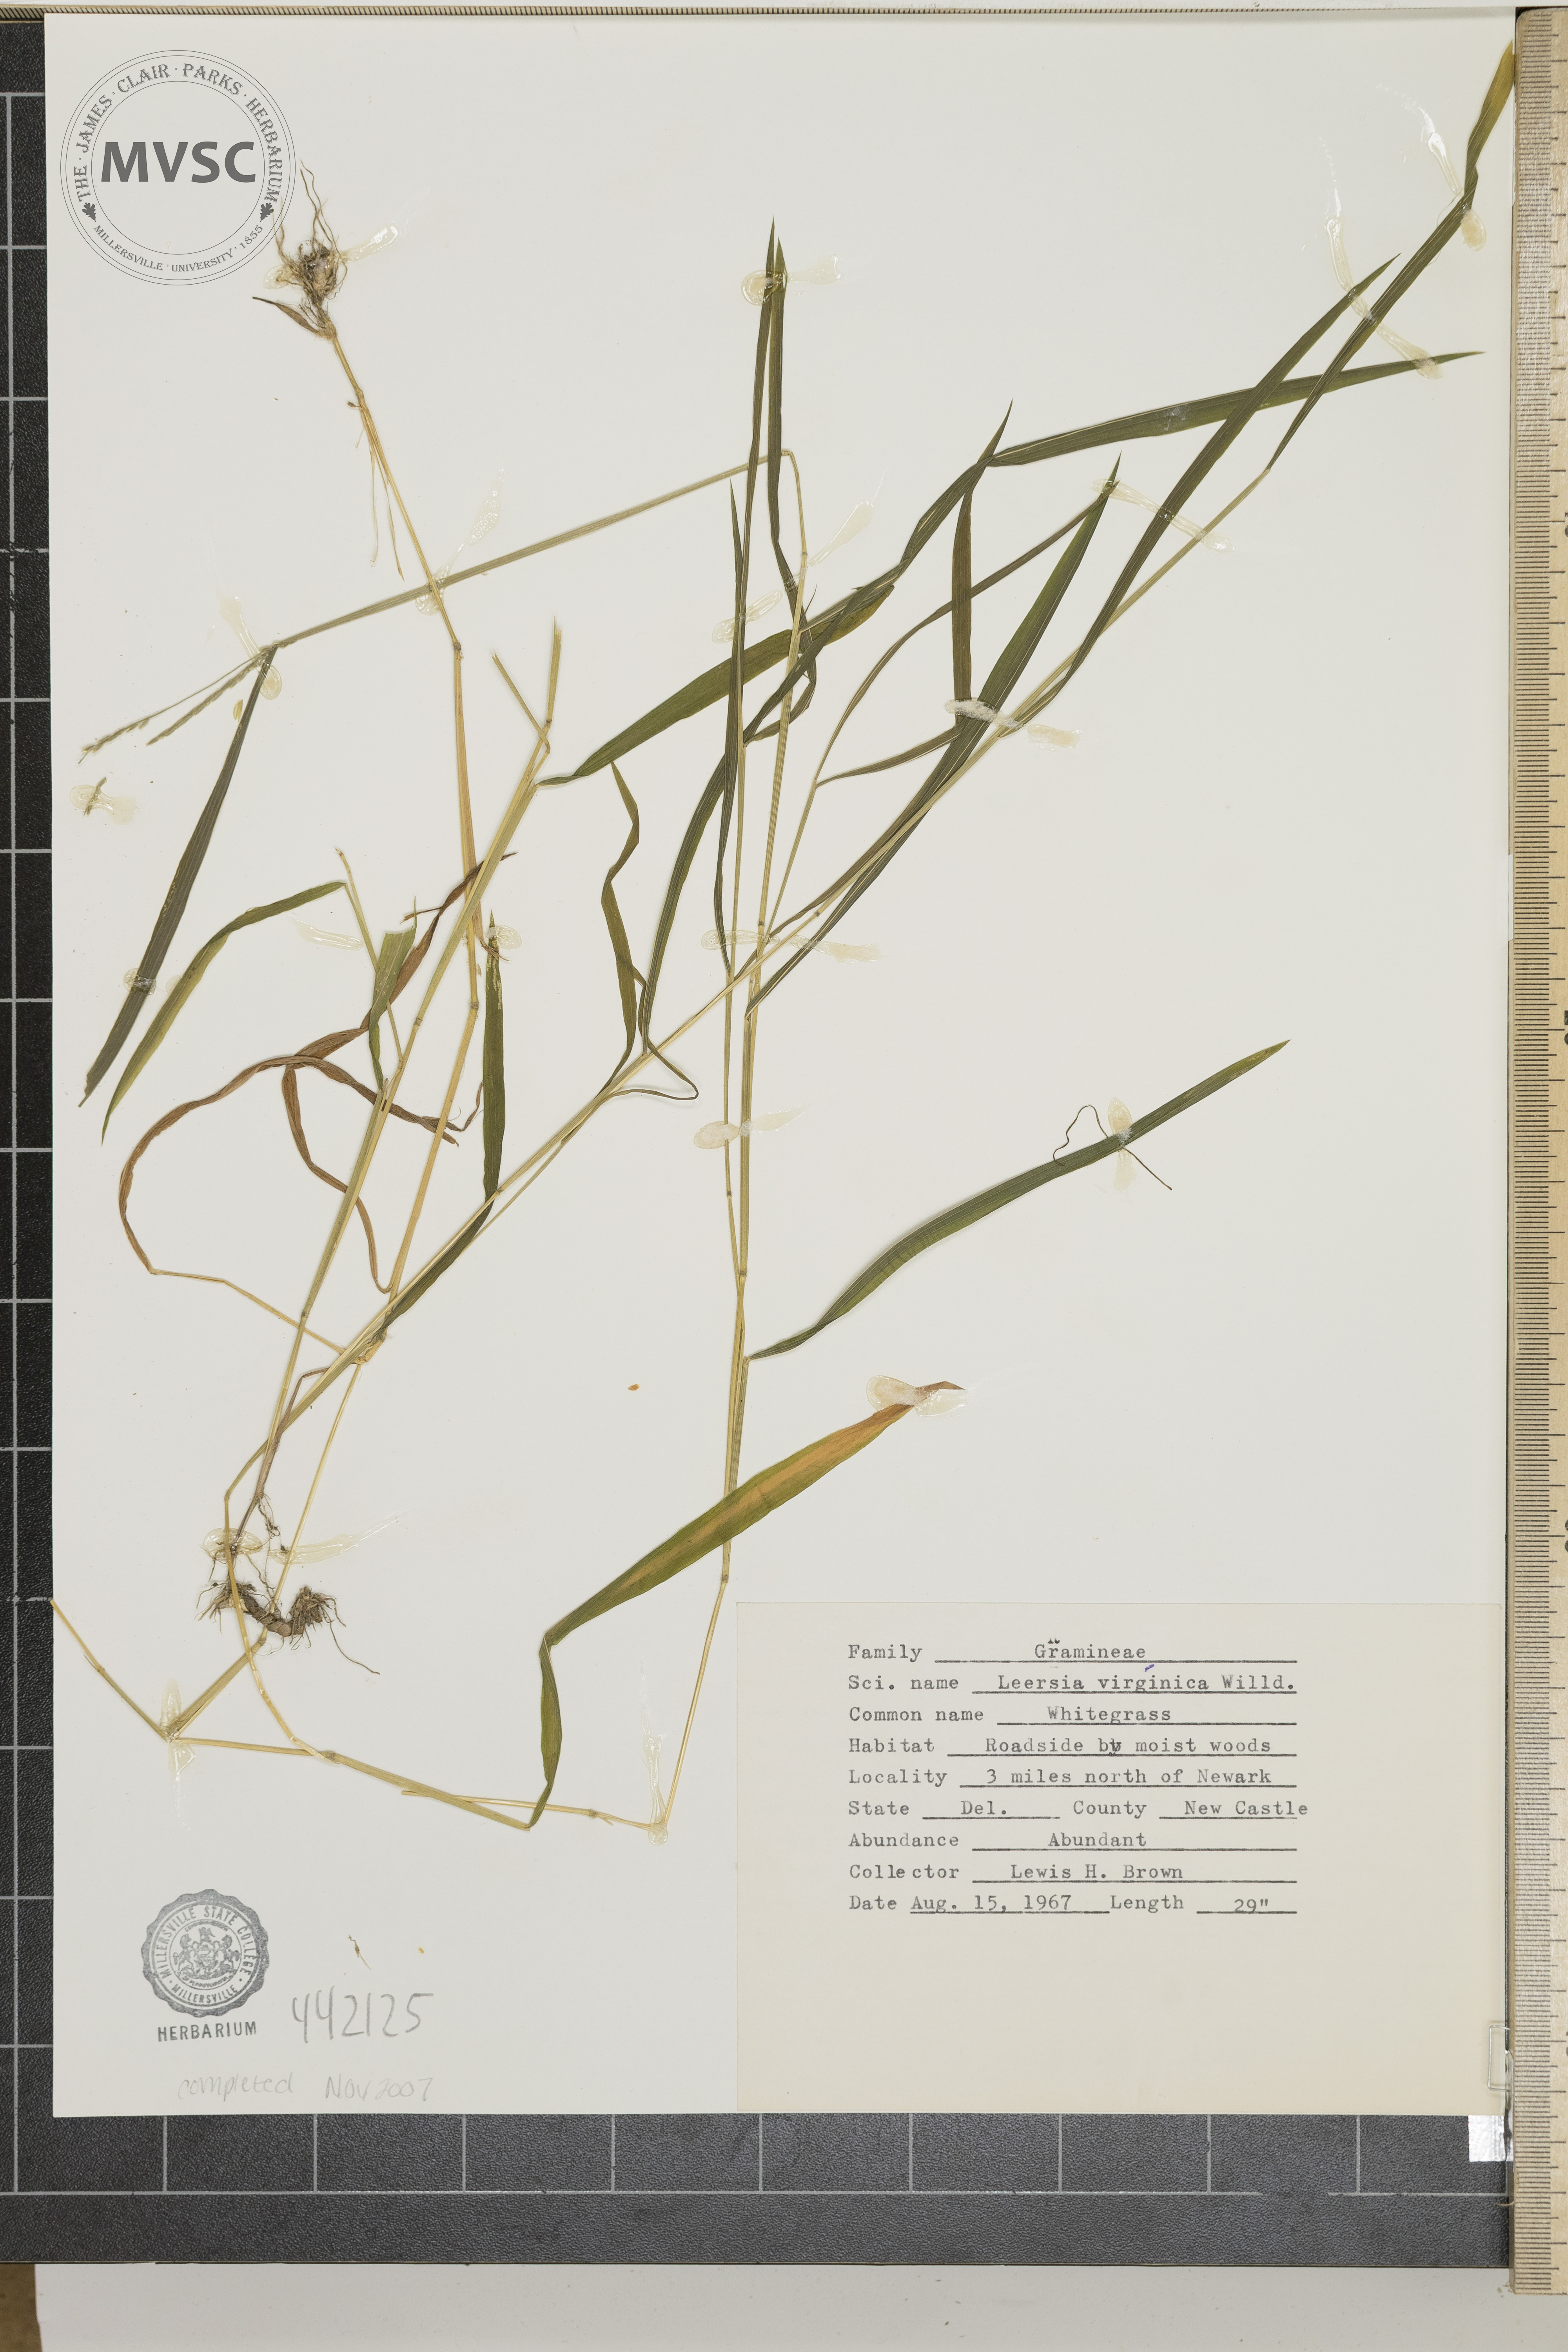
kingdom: Plantae
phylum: Tracheophyta
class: Liliopsida
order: Poales
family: Poaceae
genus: Leersia
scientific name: Leersia virginica
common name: Whitegrass
